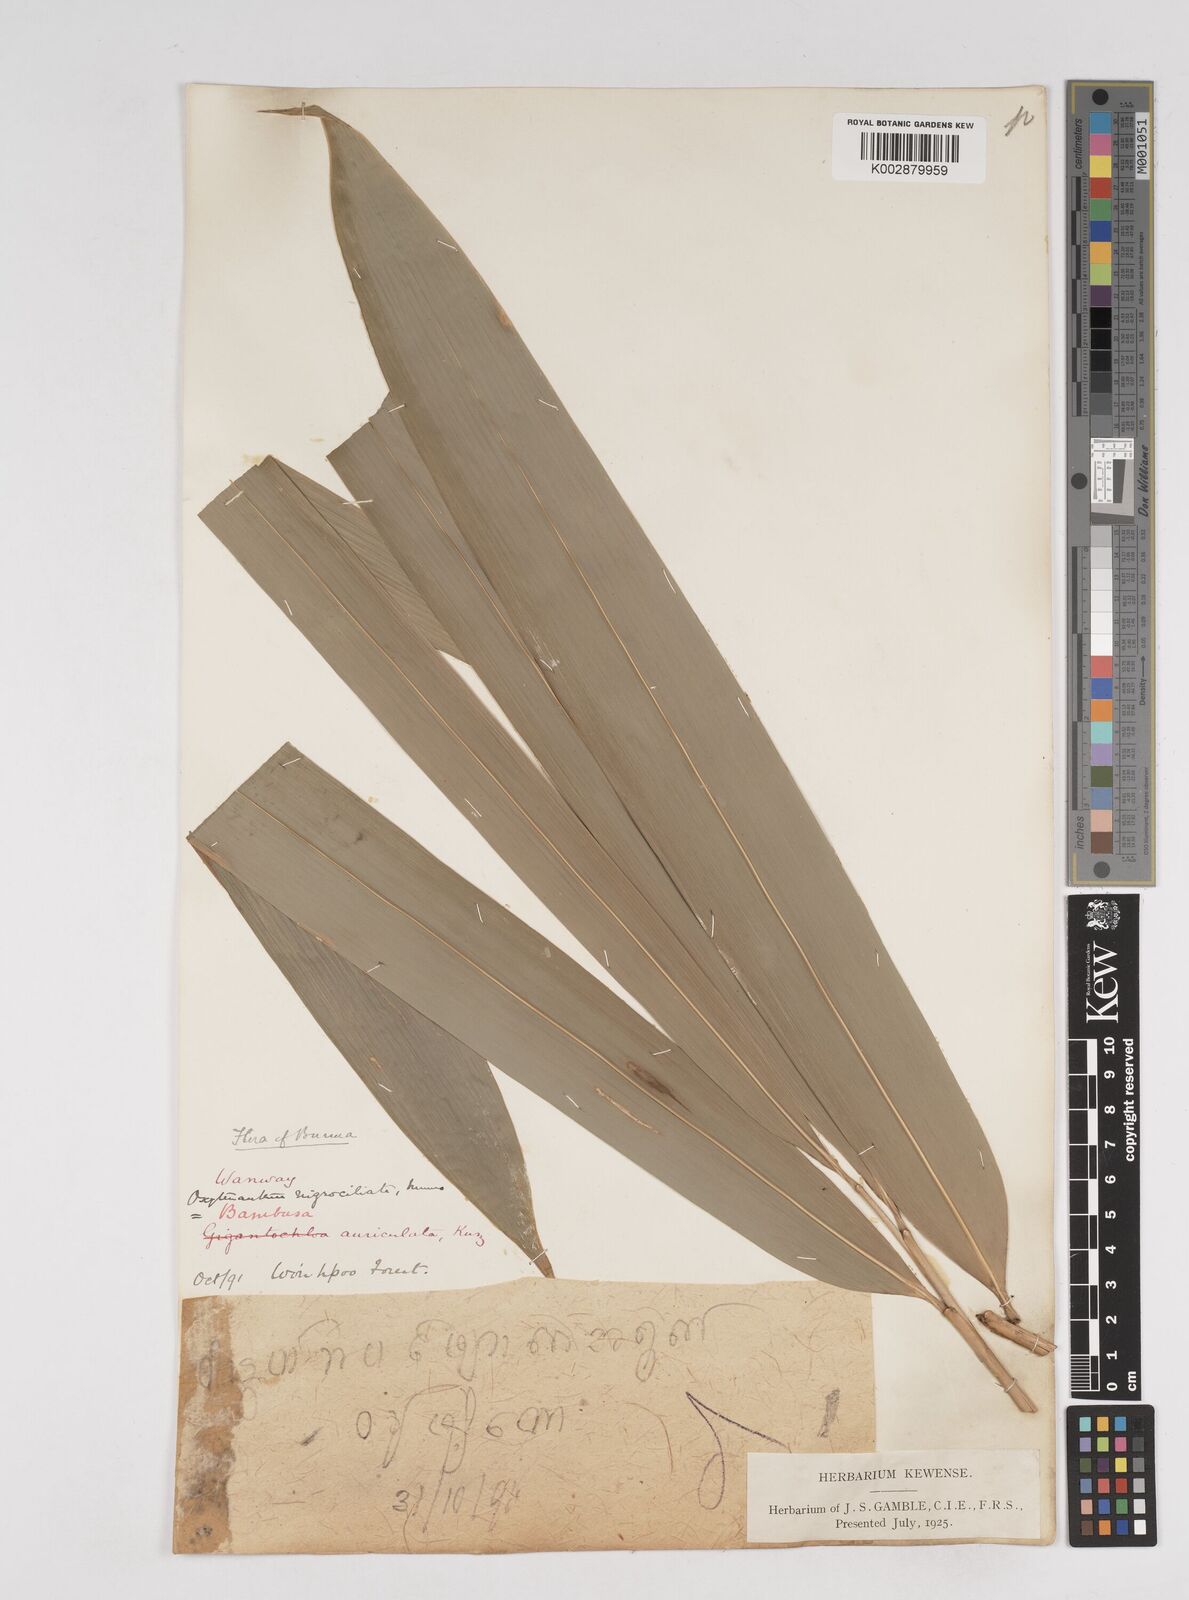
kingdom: Plantae
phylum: Tracheophyta
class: Liliopsida
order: Poales
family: Poaceae
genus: Gigantochloa
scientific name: Gigantochloa
